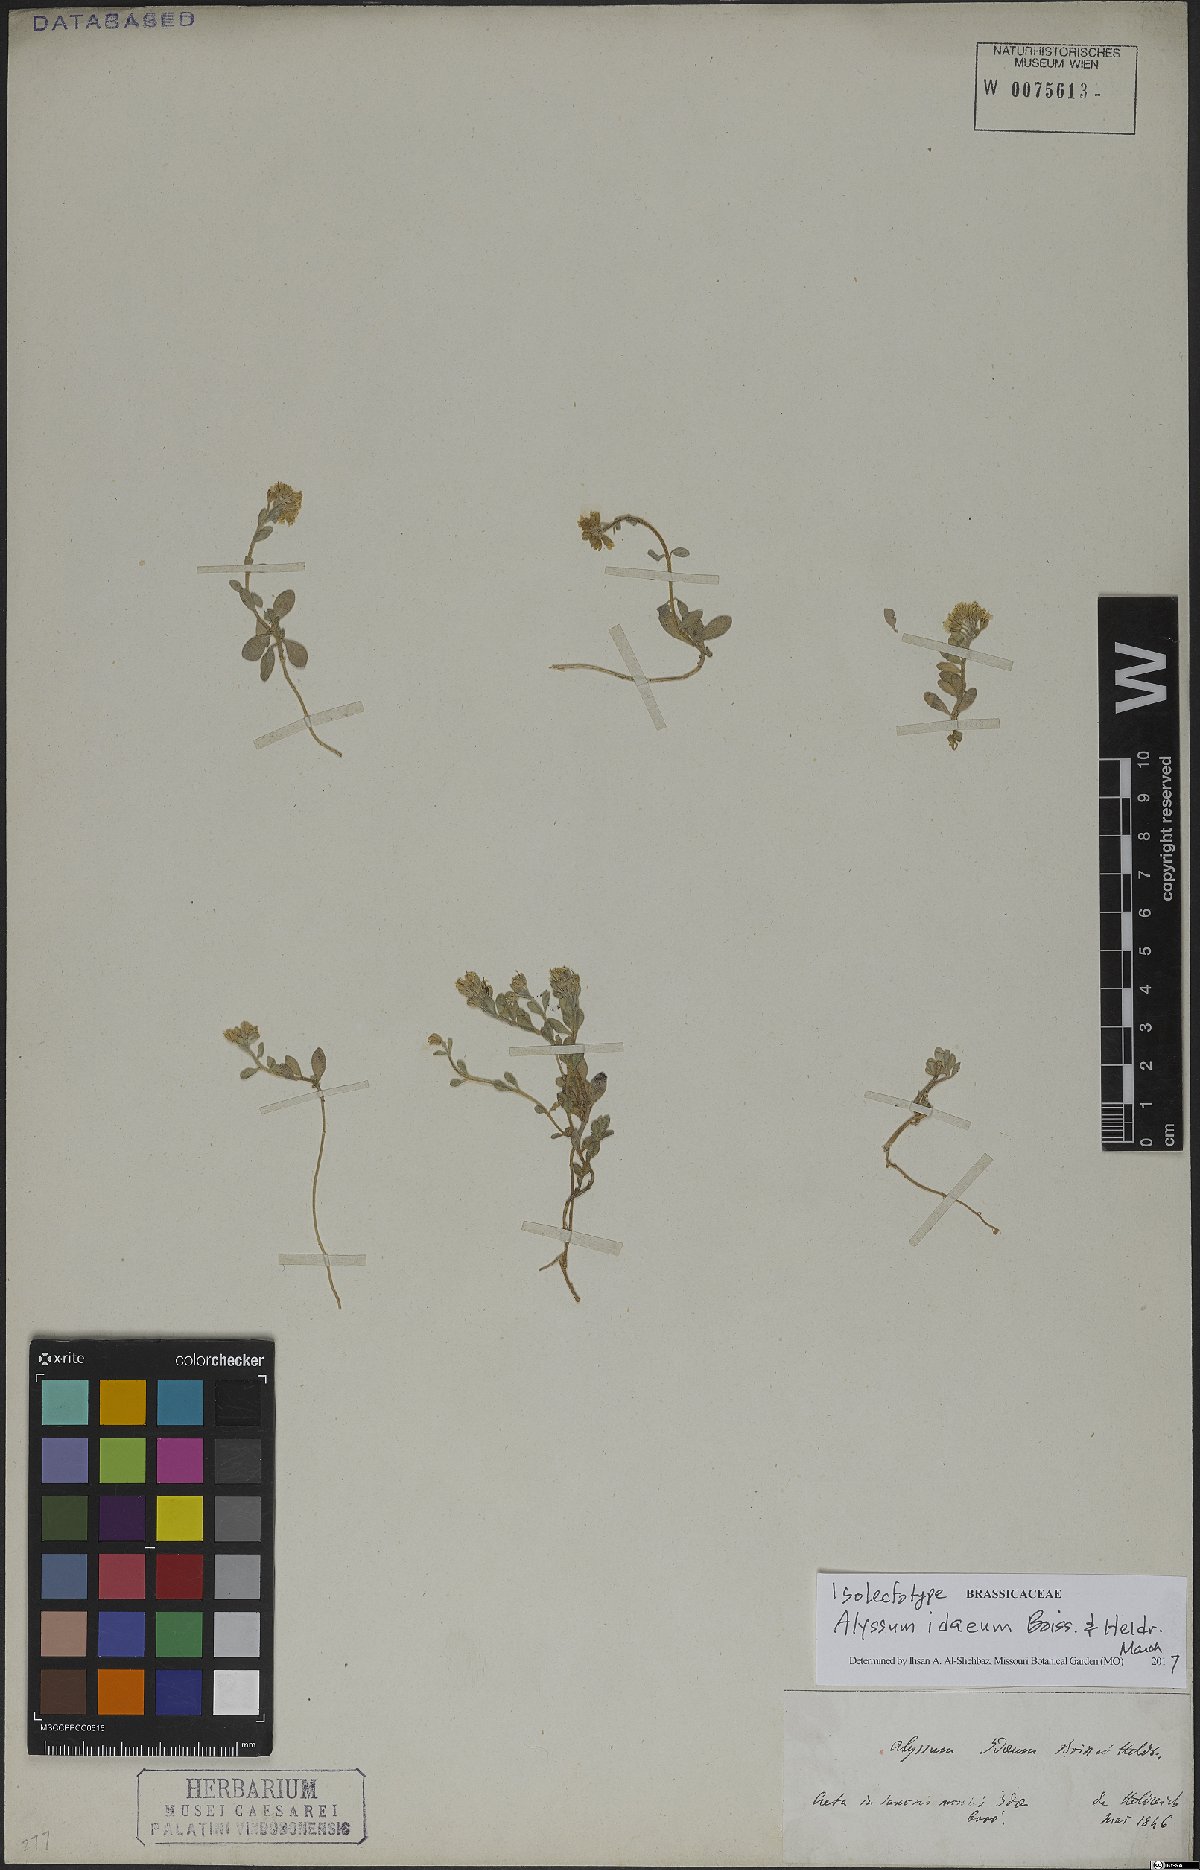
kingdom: Plantae
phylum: Tracheophyta
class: Magnoliopsida
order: Brassicales
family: Brassicaceae
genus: Alyssum
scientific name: Alyssum idaeum
